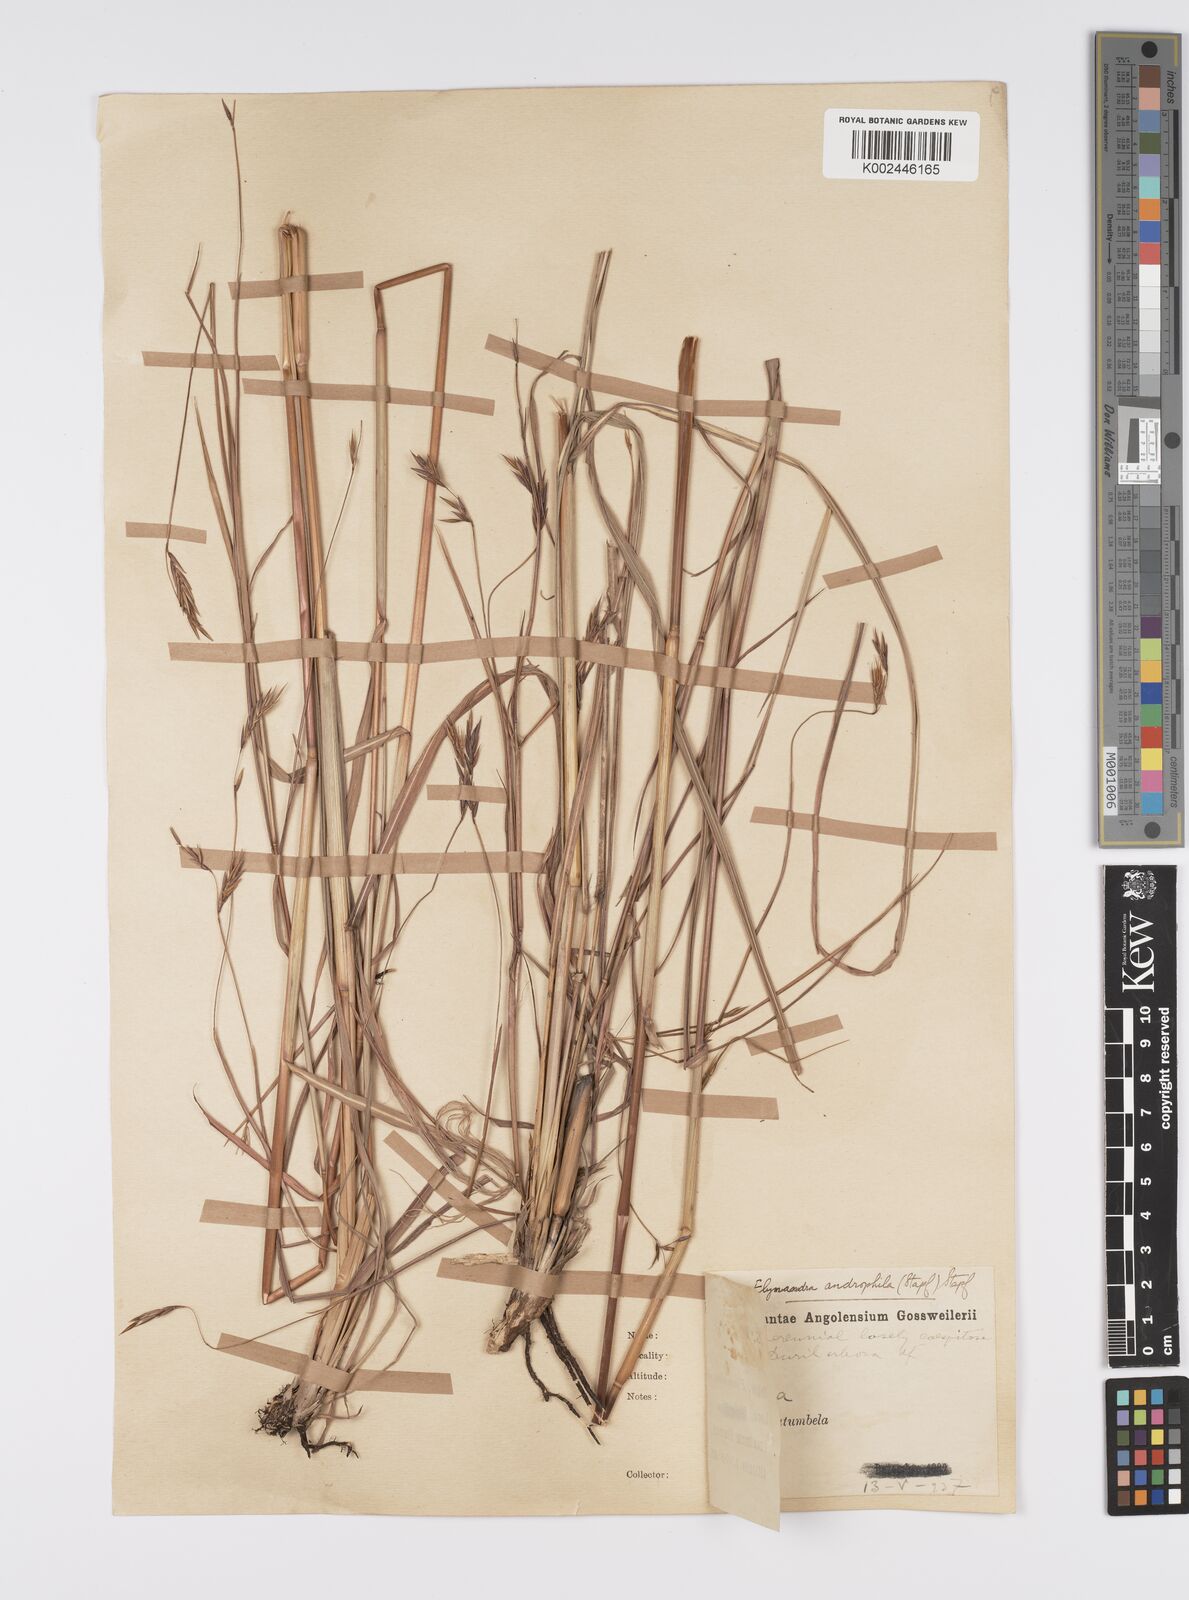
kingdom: Plantae
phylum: Tracheophyta
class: Liliopsida
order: Poales
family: Poaceae
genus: Elymandra
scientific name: Elymandra androphila
